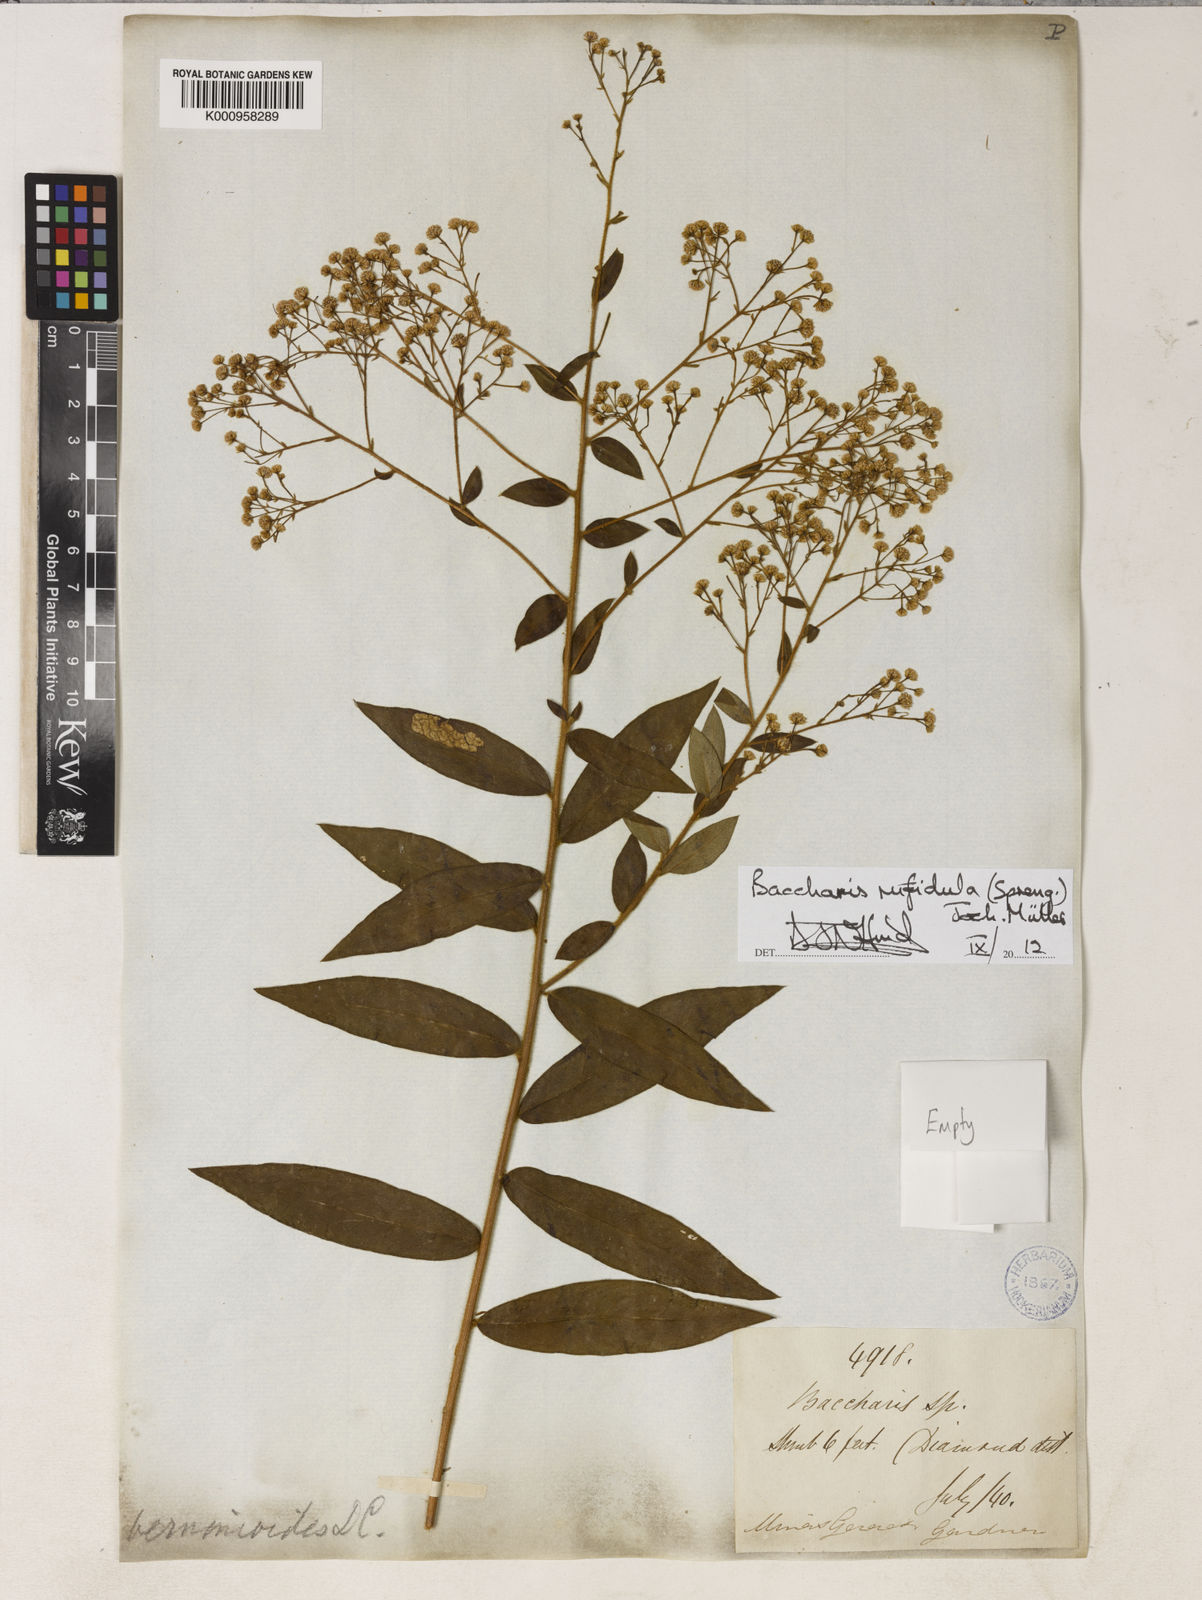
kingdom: Plantae
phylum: Tracheophyta
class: Magnoliopsida
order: Asterales
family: Asteraceae
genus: Baccharis
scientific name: Baccharis
